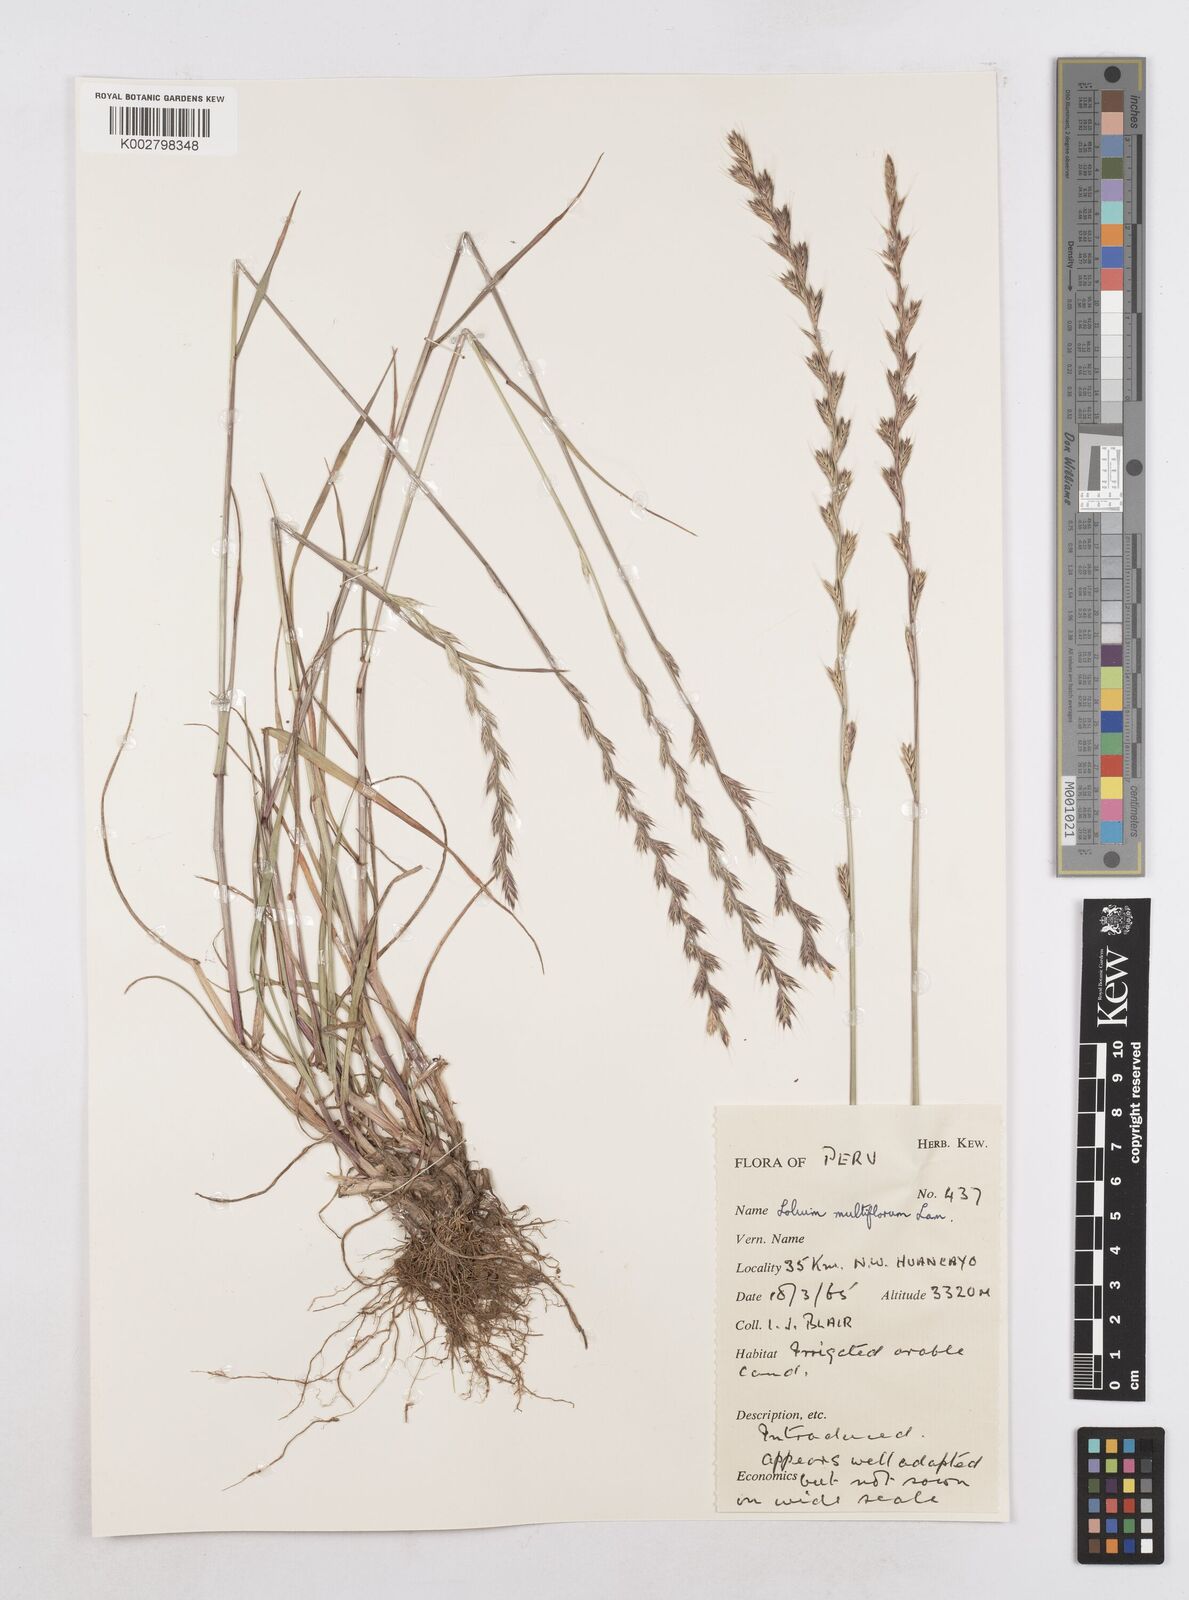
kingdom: Plantae
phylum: Tracheophyta
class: Liliopsida
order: Poales
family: Poaceae
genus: Lolium
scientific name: Lolium multiflorum
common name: Annual ryegrass
